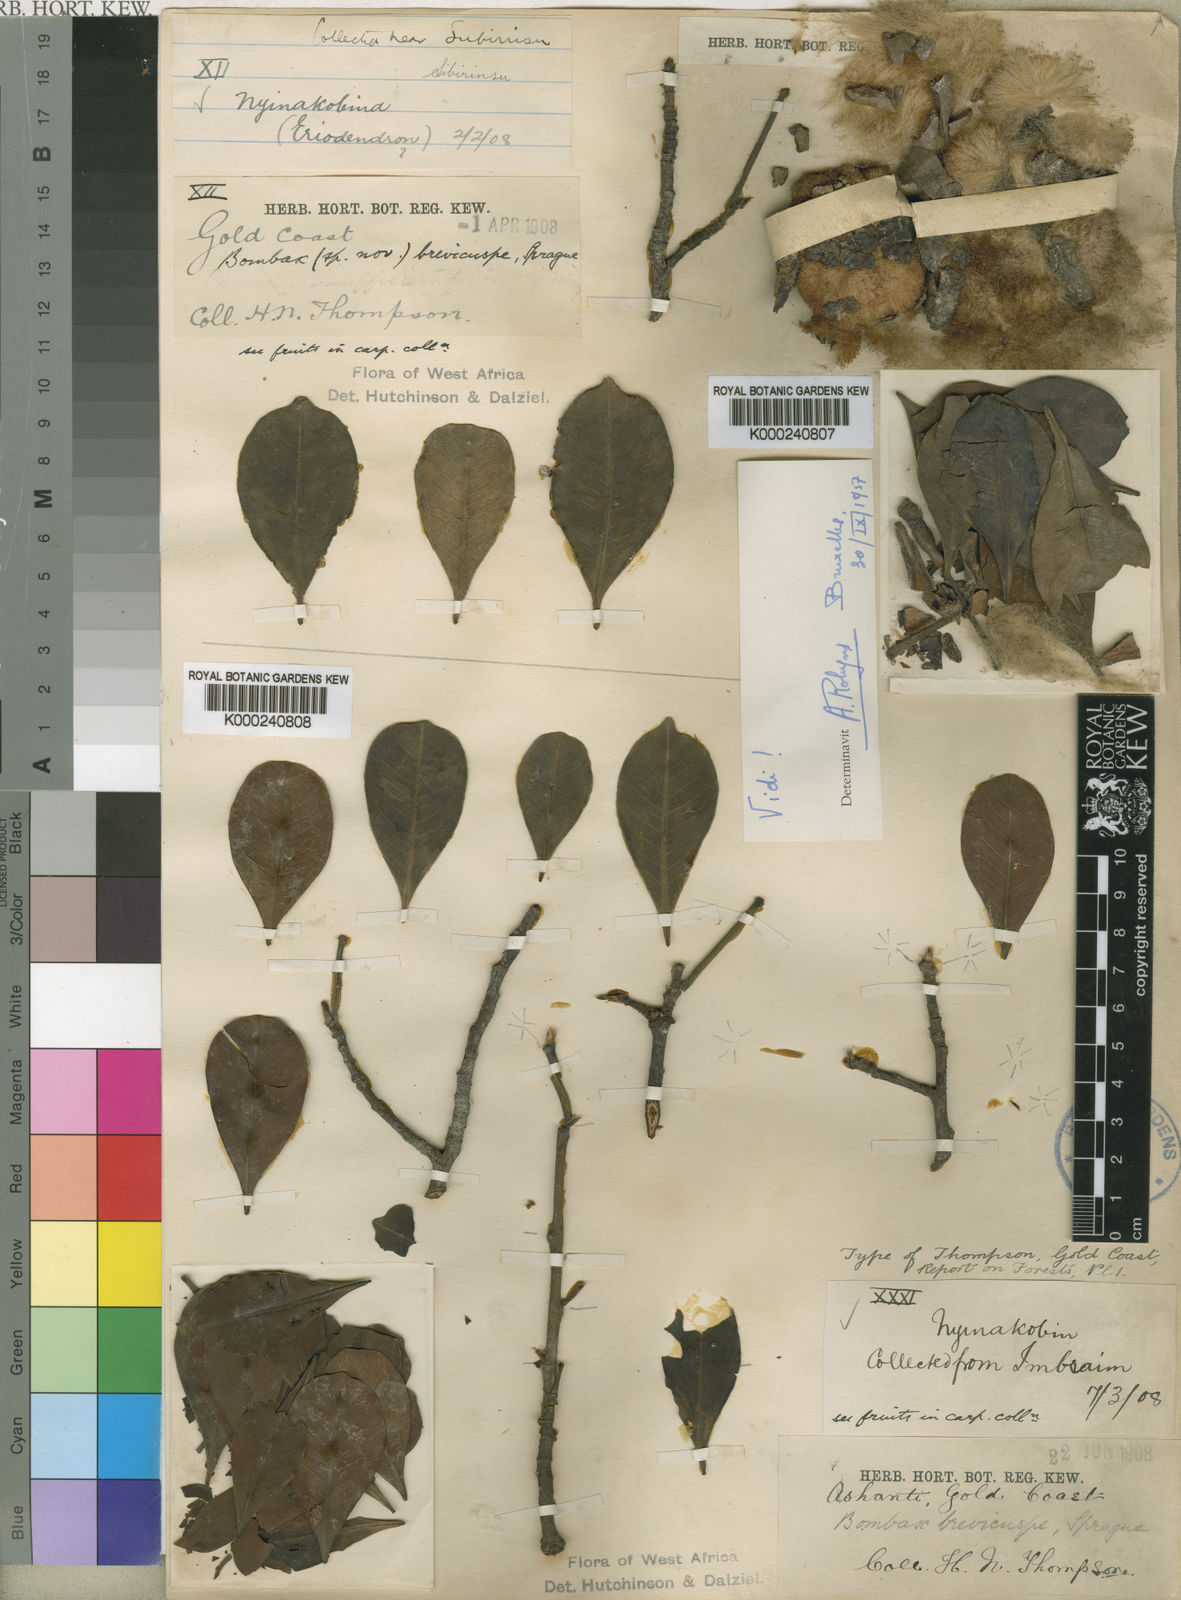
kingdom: Plantae
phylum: Tracheophyta
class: Magnoliopsida
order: Malvales
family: Malvaceae
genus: Rhodognaphalon
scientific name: Rhodognaphalon brevicuspe
